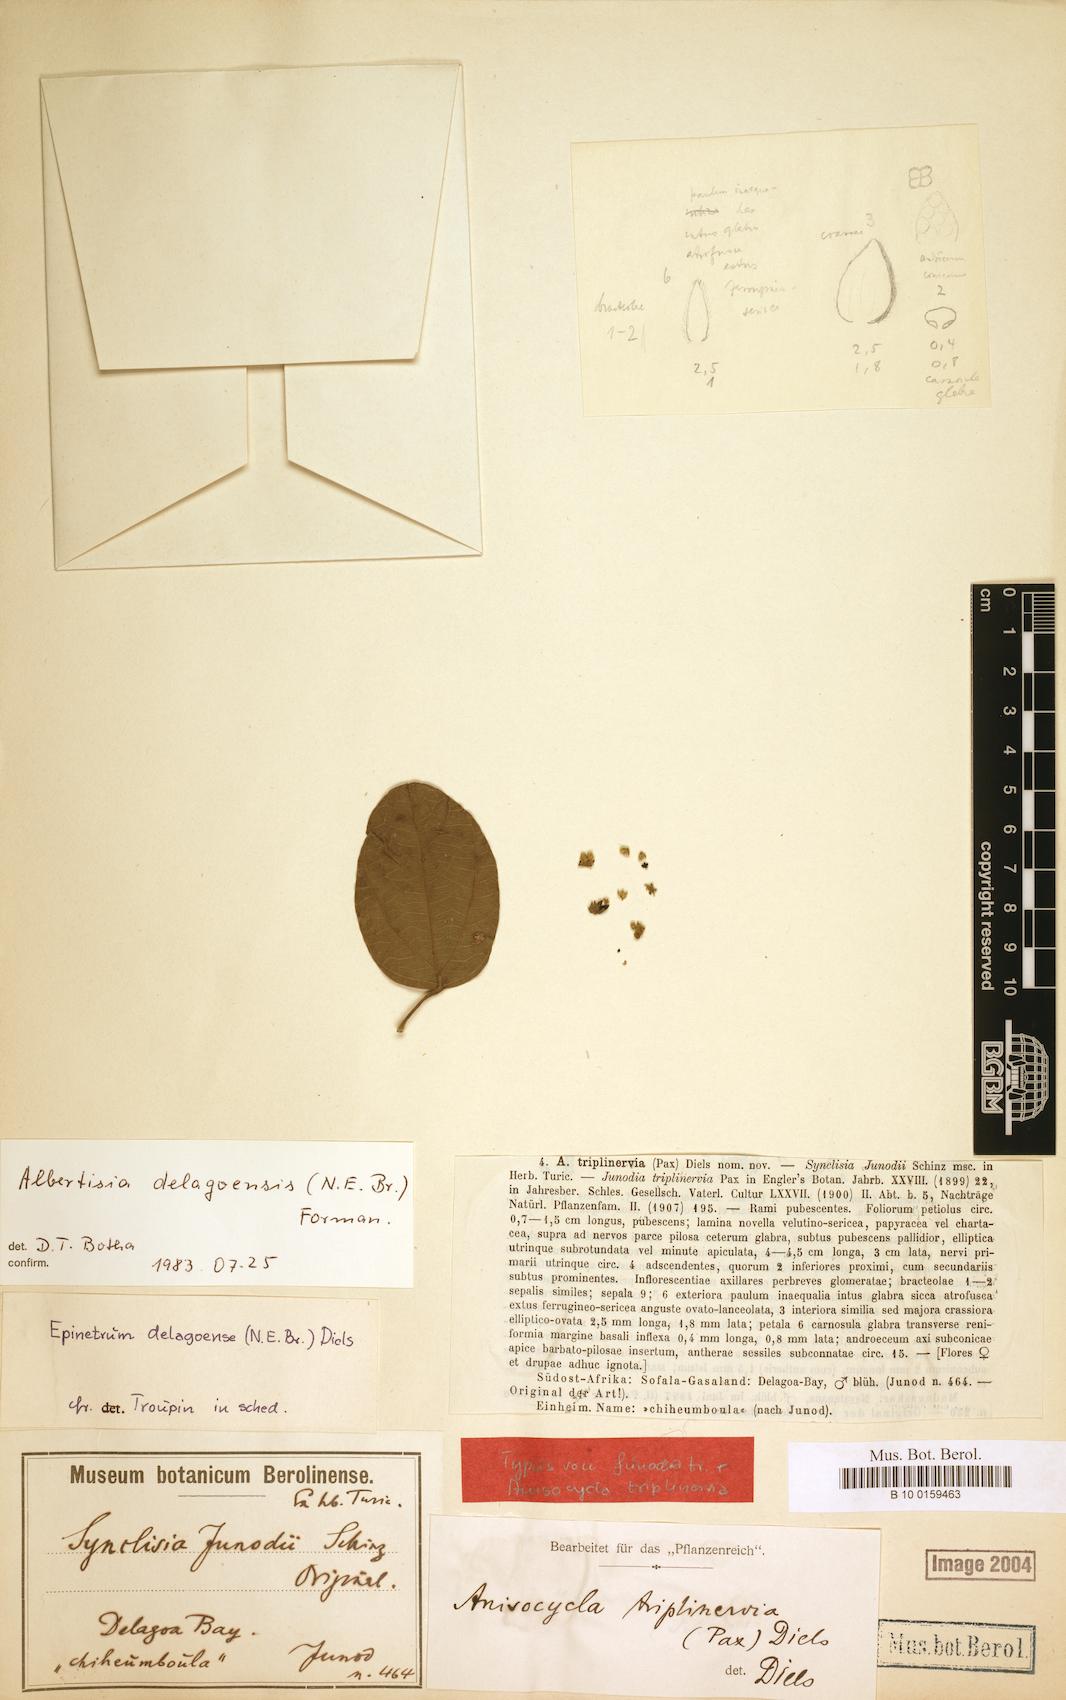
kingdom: Plantae
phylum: Tracheophyta
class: Magnoliopsida
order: Ranunculales
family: Menispermaceae
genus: Albertisia
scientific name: Albertisia delagoensis
